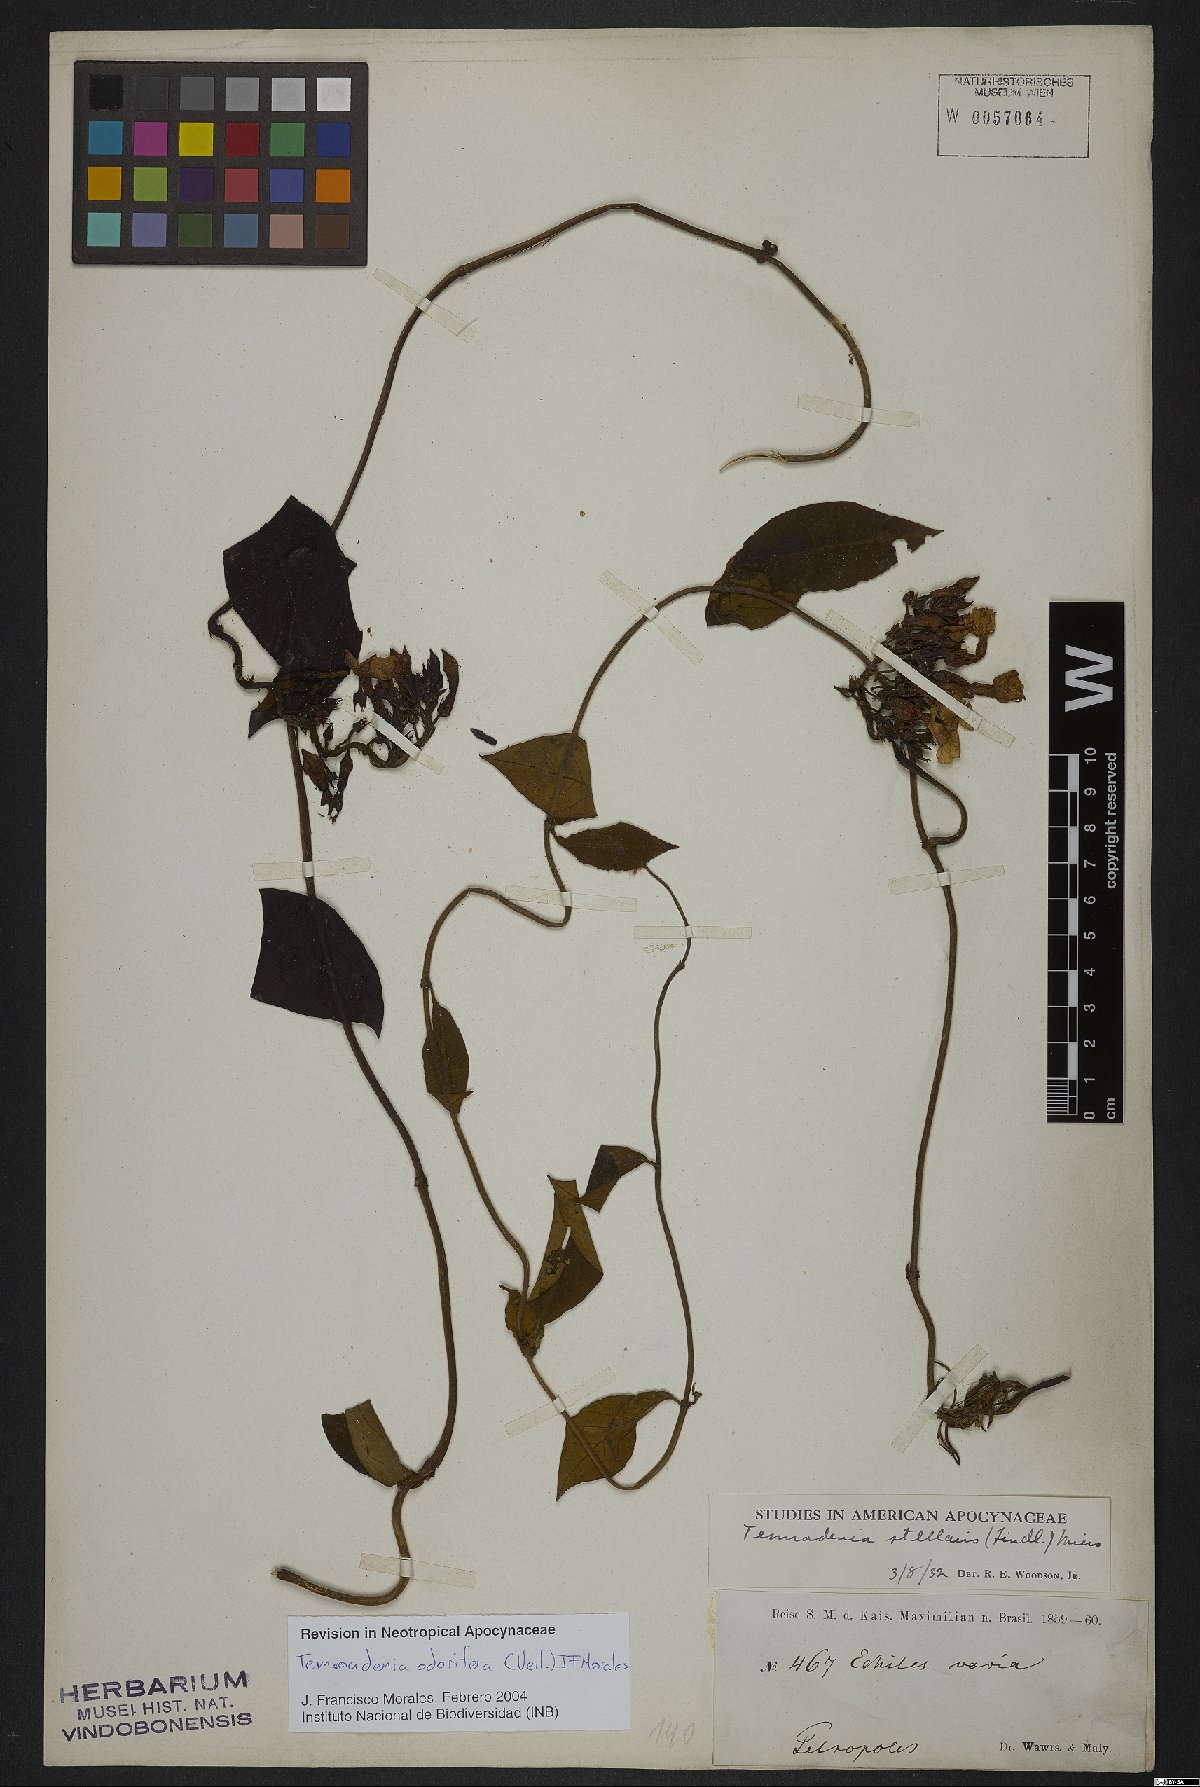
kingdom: Plantae
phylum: Tracheophyta
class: Magnoliopsida
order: Gentianales
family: Apocynaceae
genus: Temnadenia
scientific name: Temnadenia odorifera
